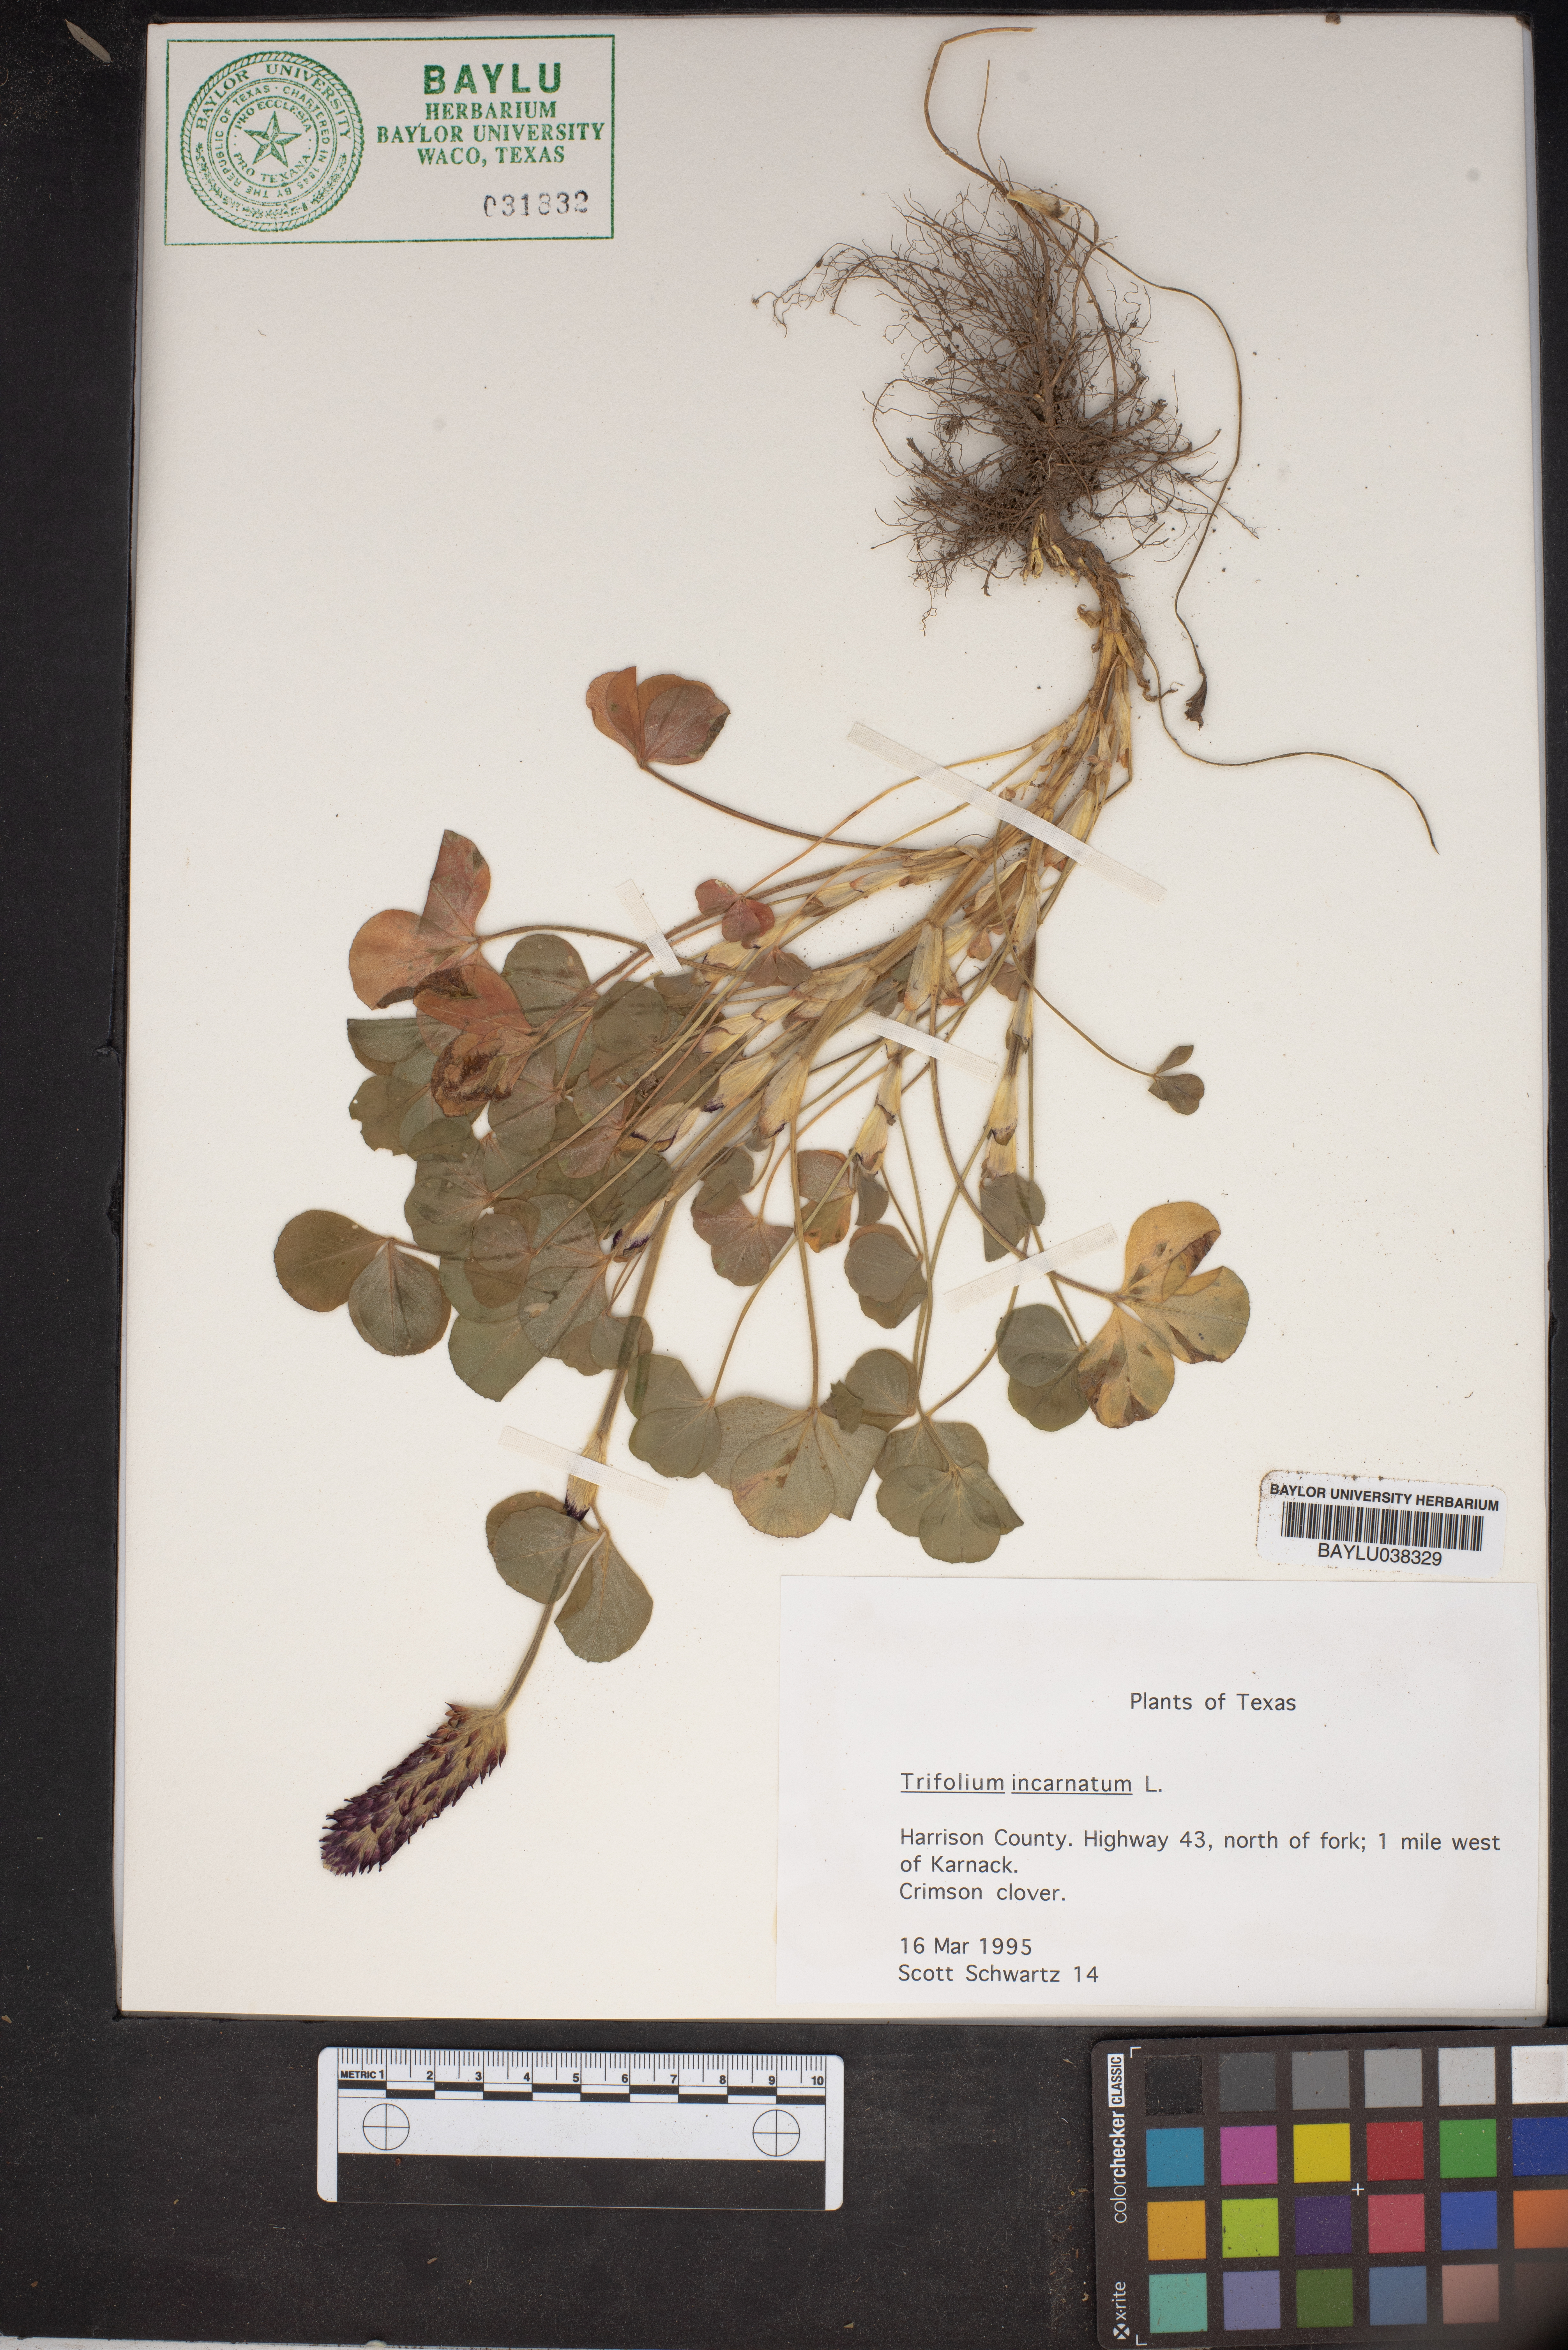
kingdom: Plantae
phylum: Tracheophyta
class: Magnoliopsida
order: Fabales
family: Fabaceae
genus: Trifolium
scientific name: Trifolium incarnatum
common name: Crimson clover
